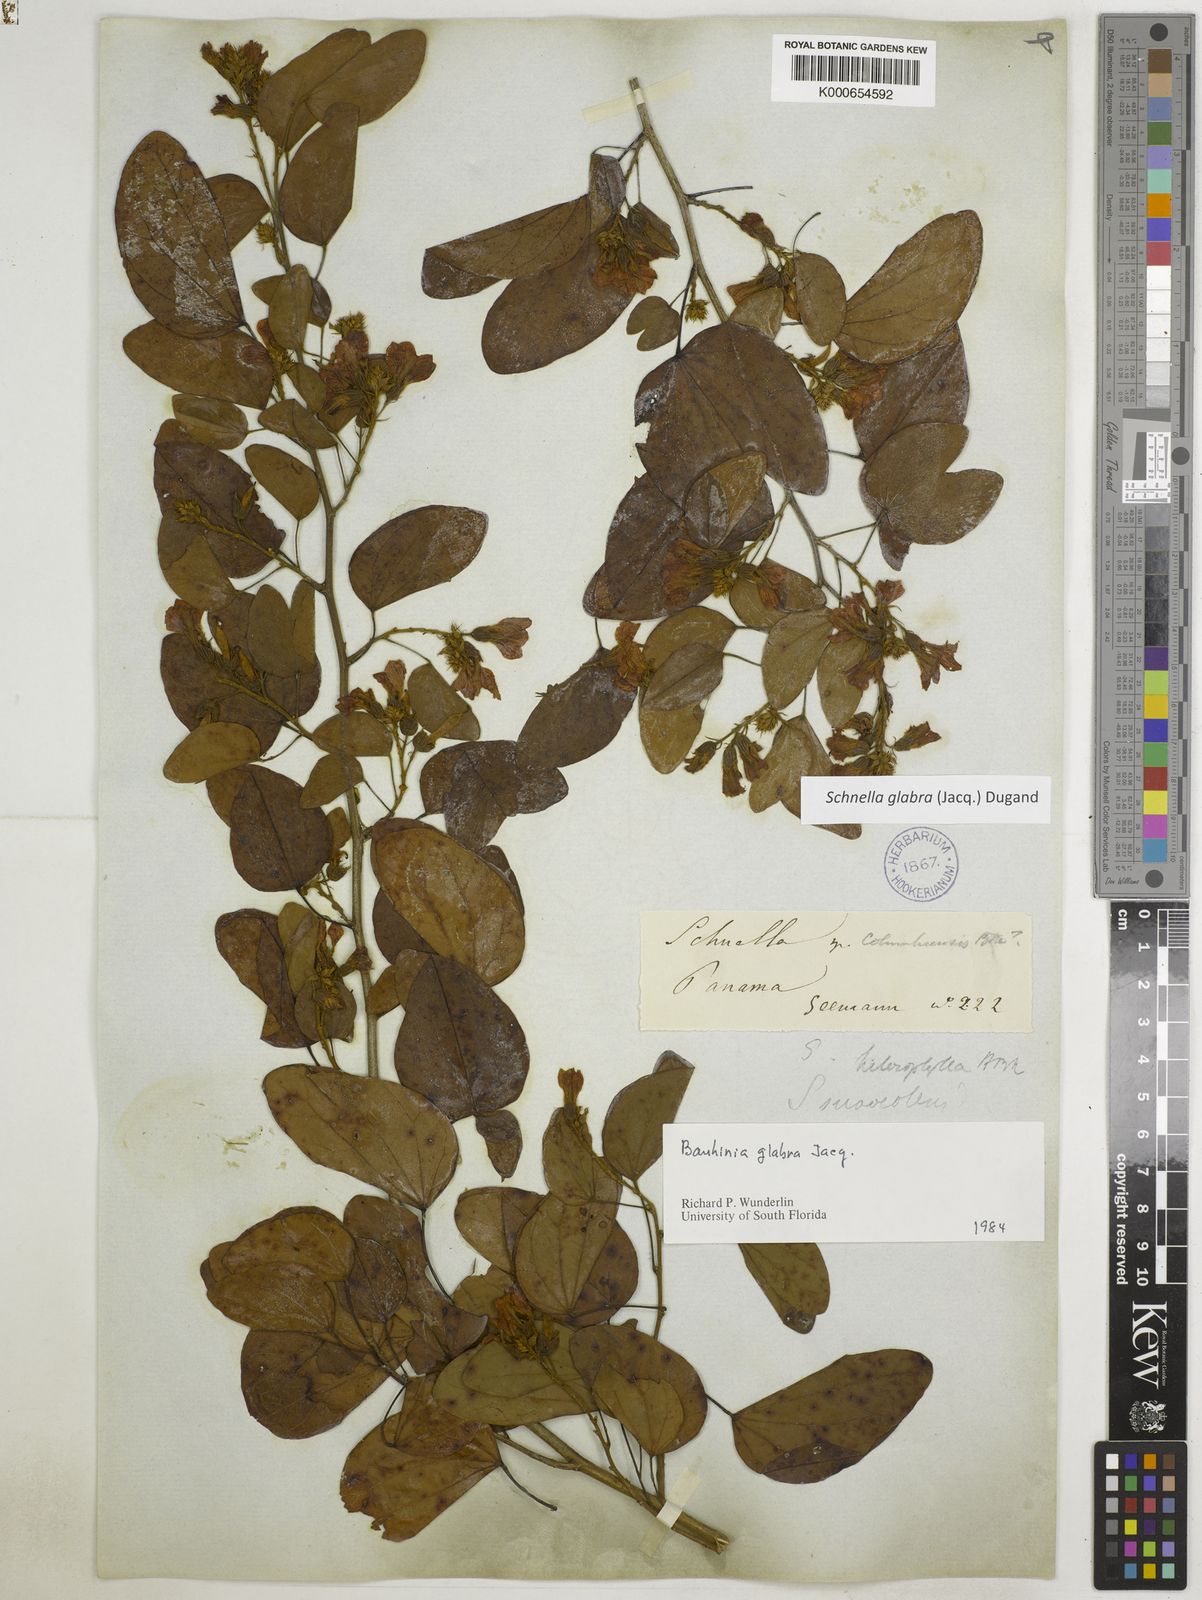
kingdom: Plantae
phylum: Tracheophyta
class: Magnoliopsida
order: Fabales
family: Fabaceae
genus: Schnella
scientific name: Schnella glabra
